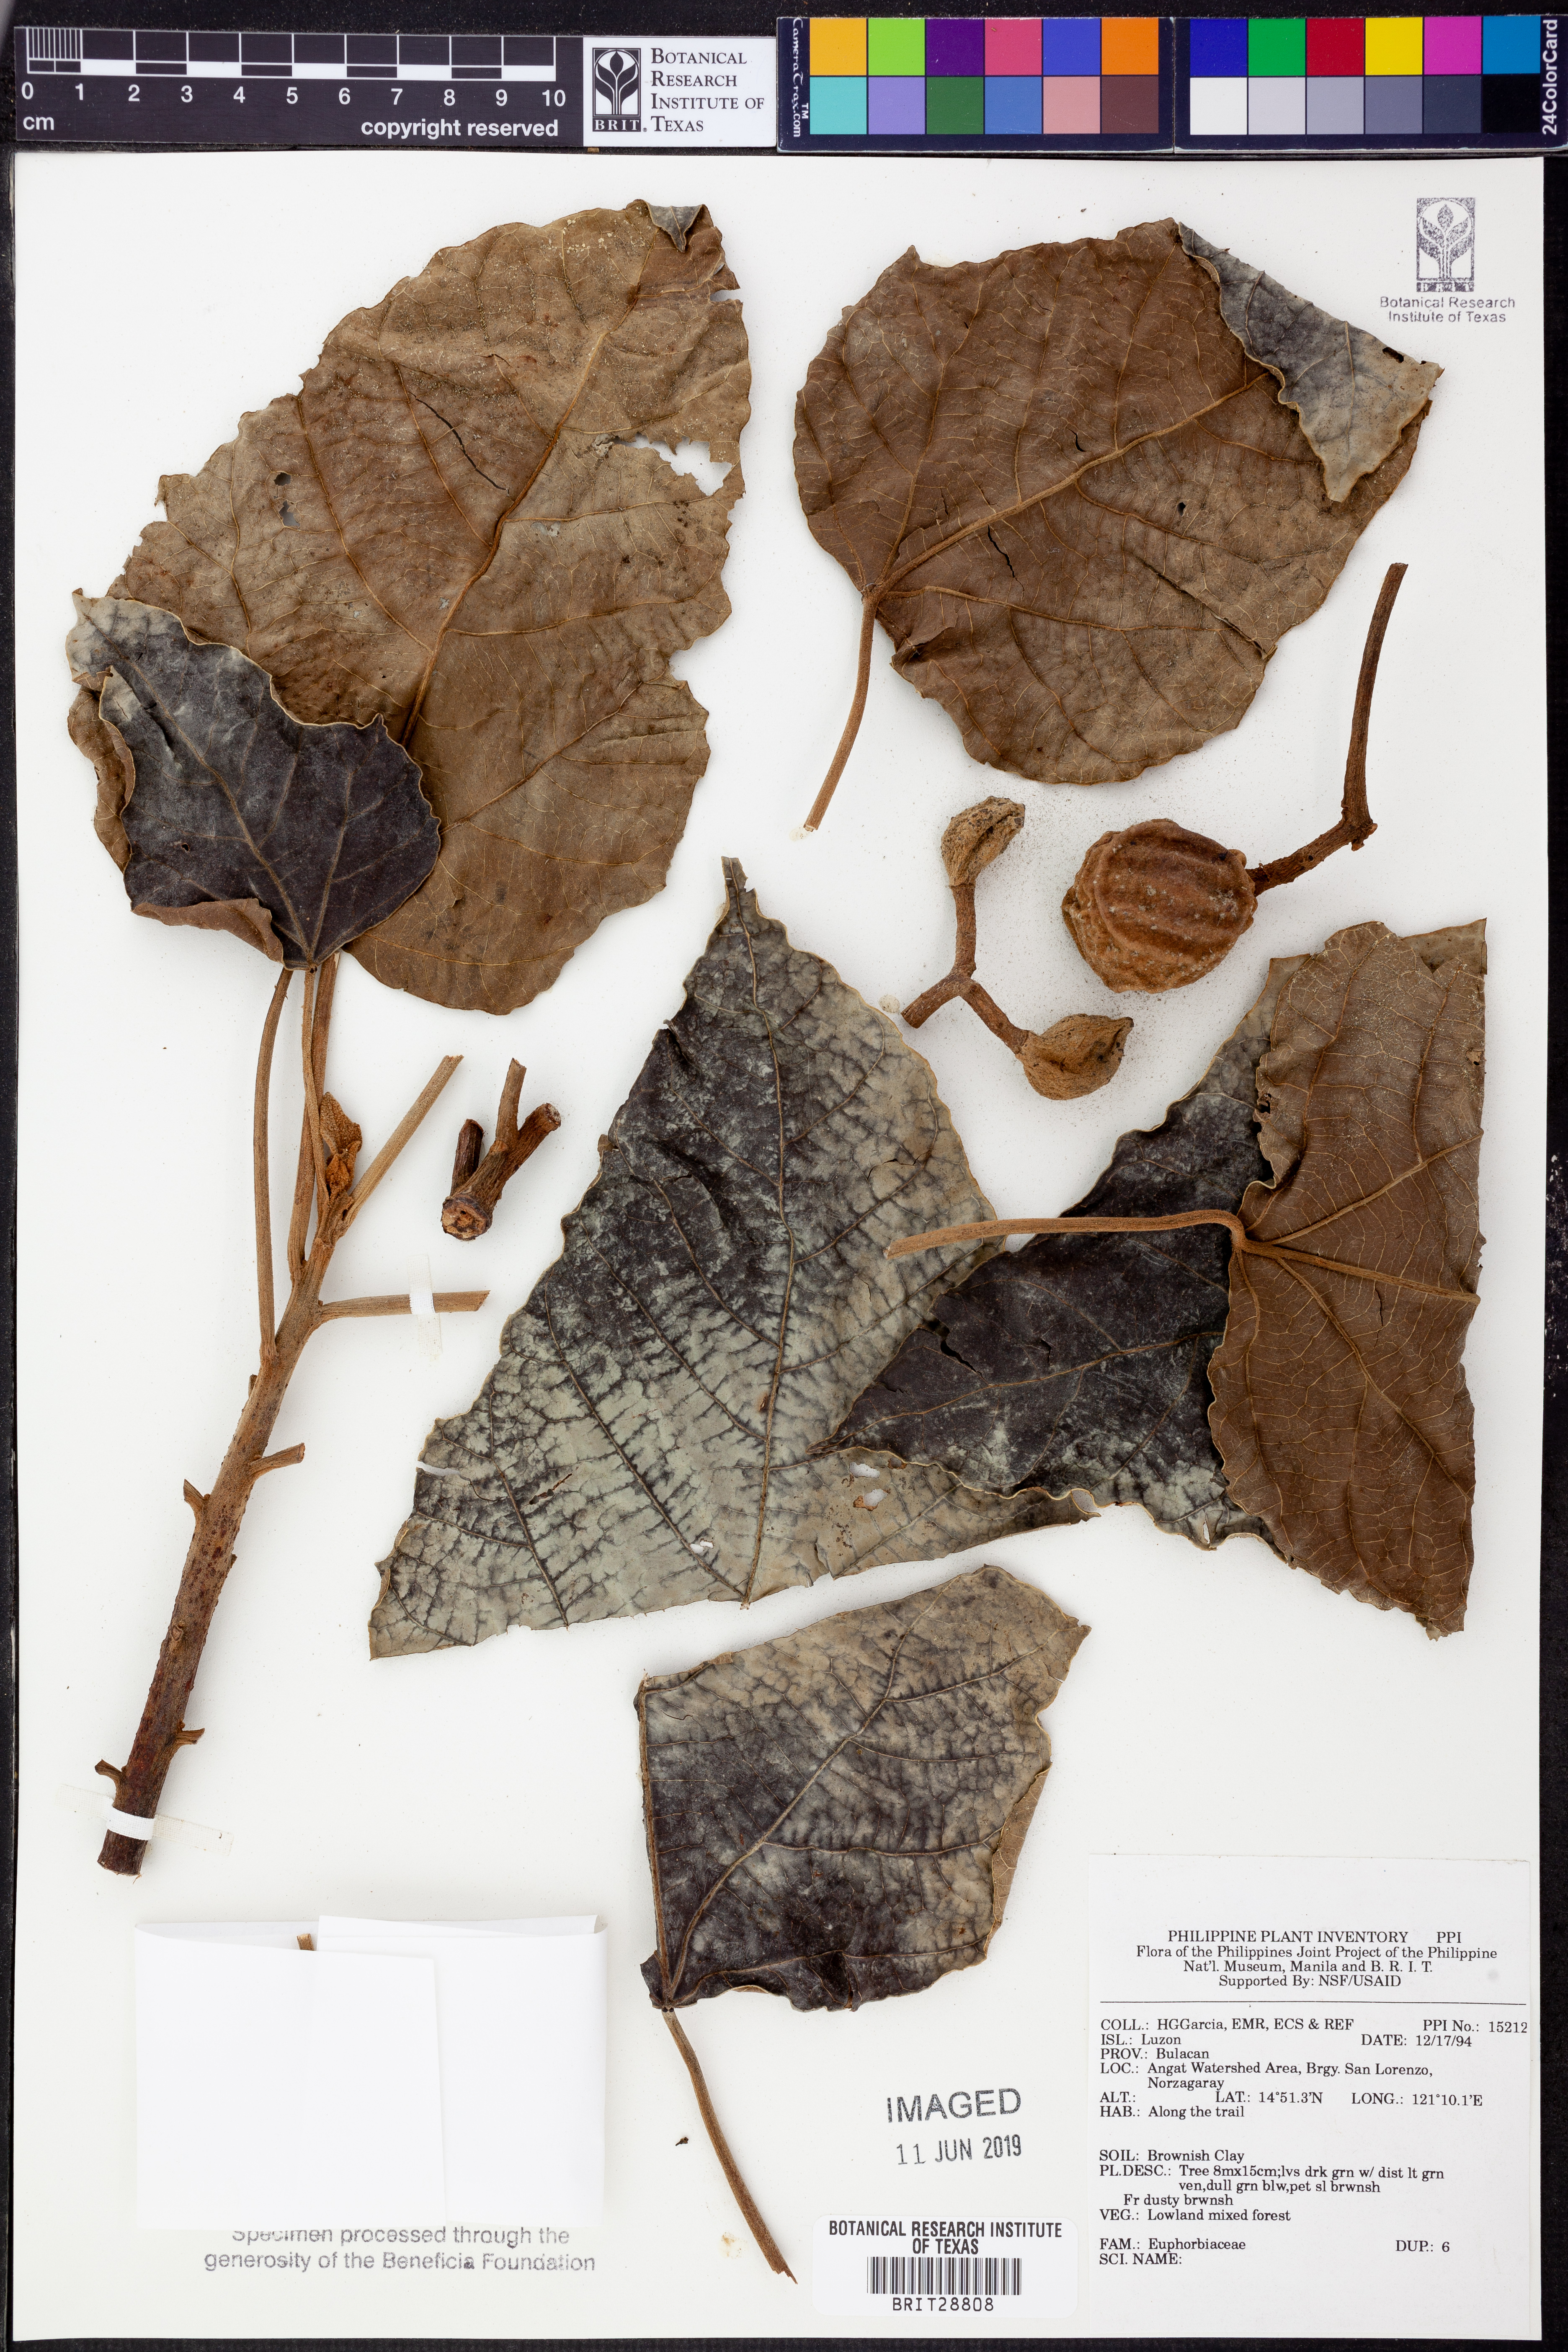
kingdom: Plantae
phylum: Tracheophyta
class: Magnoliopsida
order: Malpighiales
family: Euphorbiaceae
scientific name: Euphorbiaceae
